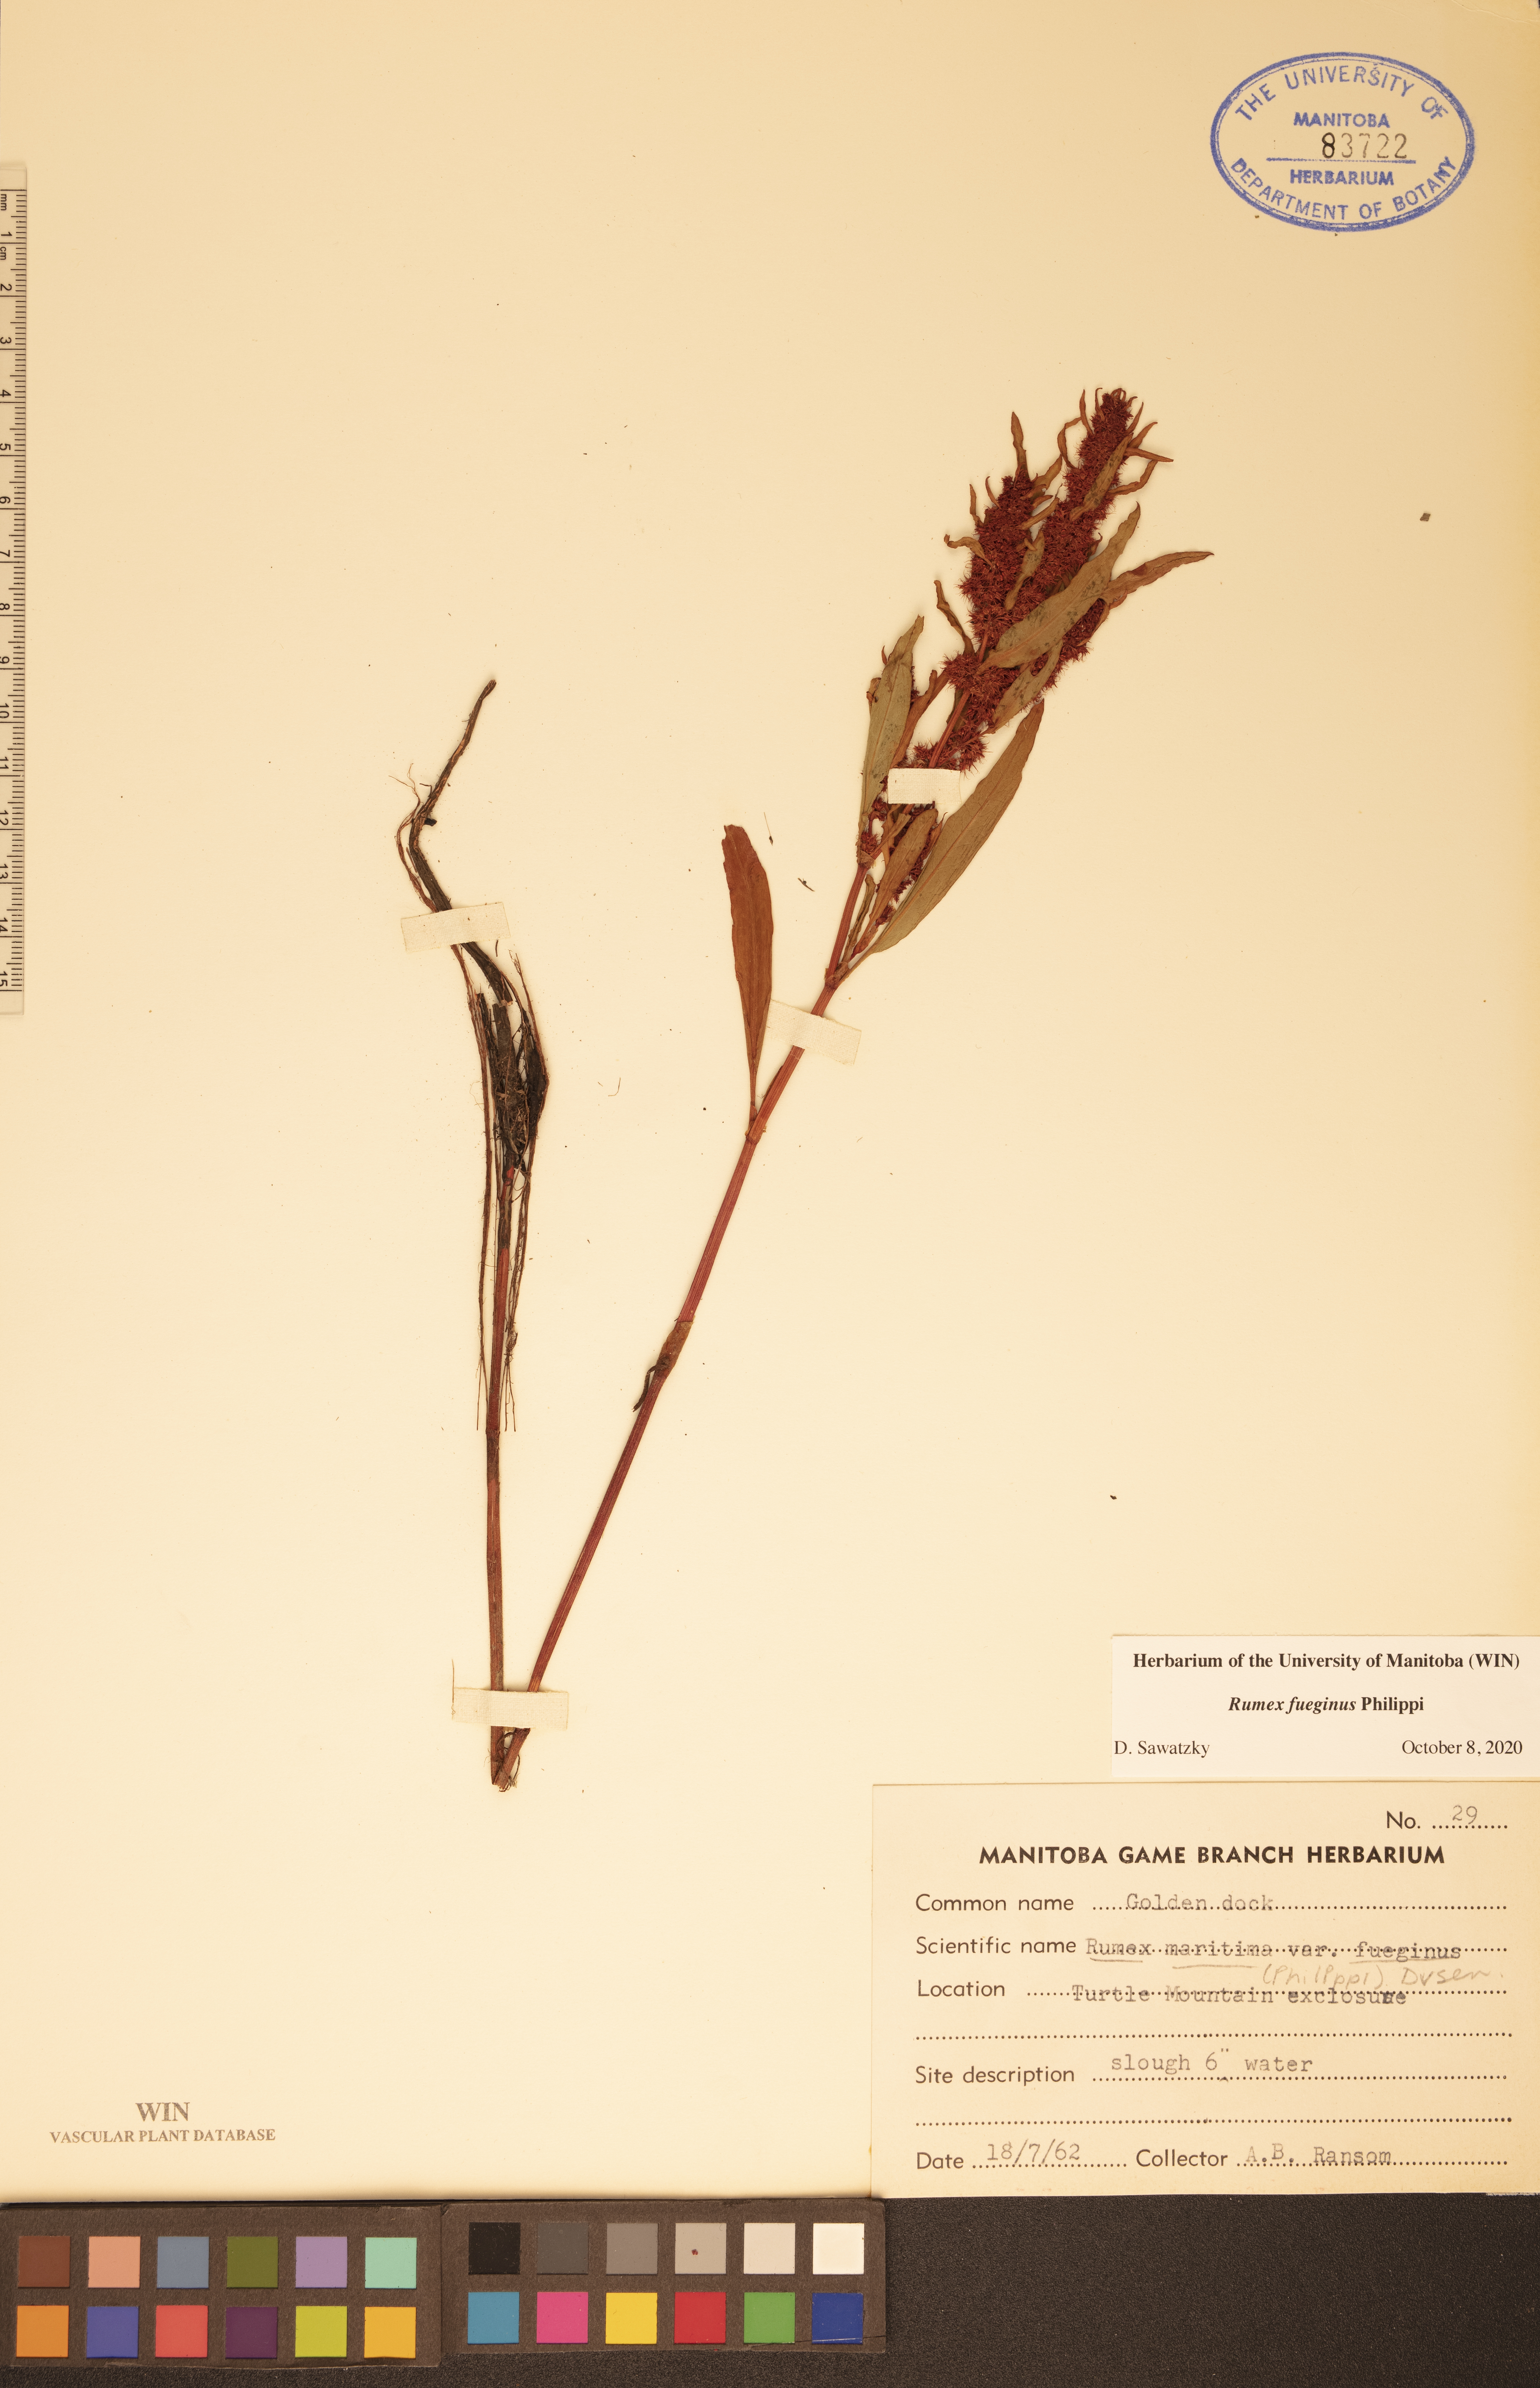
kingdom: Plantae
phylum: Tracheophyta
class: Magnoliopsida
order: Caryophyllales
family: Polygonaceae
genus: Rumex
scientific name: Rumex fueginus
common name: American golden dock
